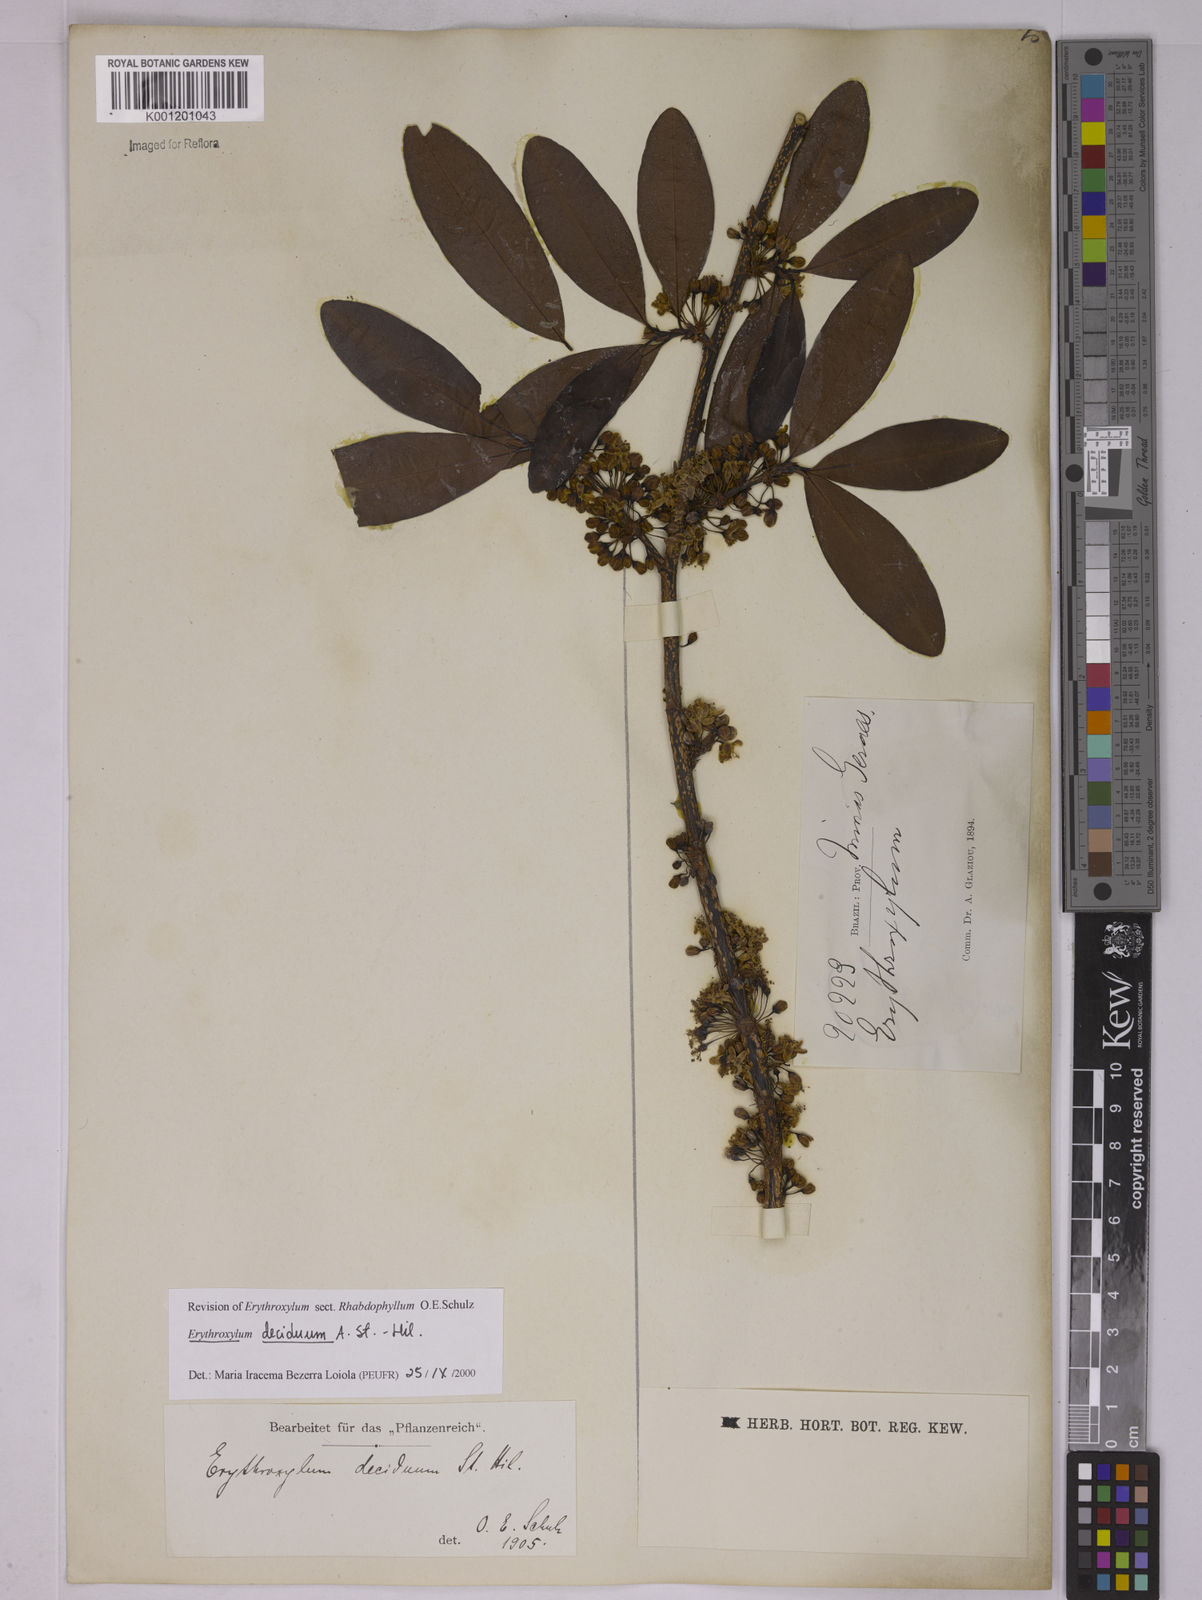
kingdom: Plantae
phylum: Tracheophyta
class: Magnoliopsida
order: Malpighiales
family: Erythroxylaceae
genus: Erythroxylum
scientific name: Erythroxylum deciduum
